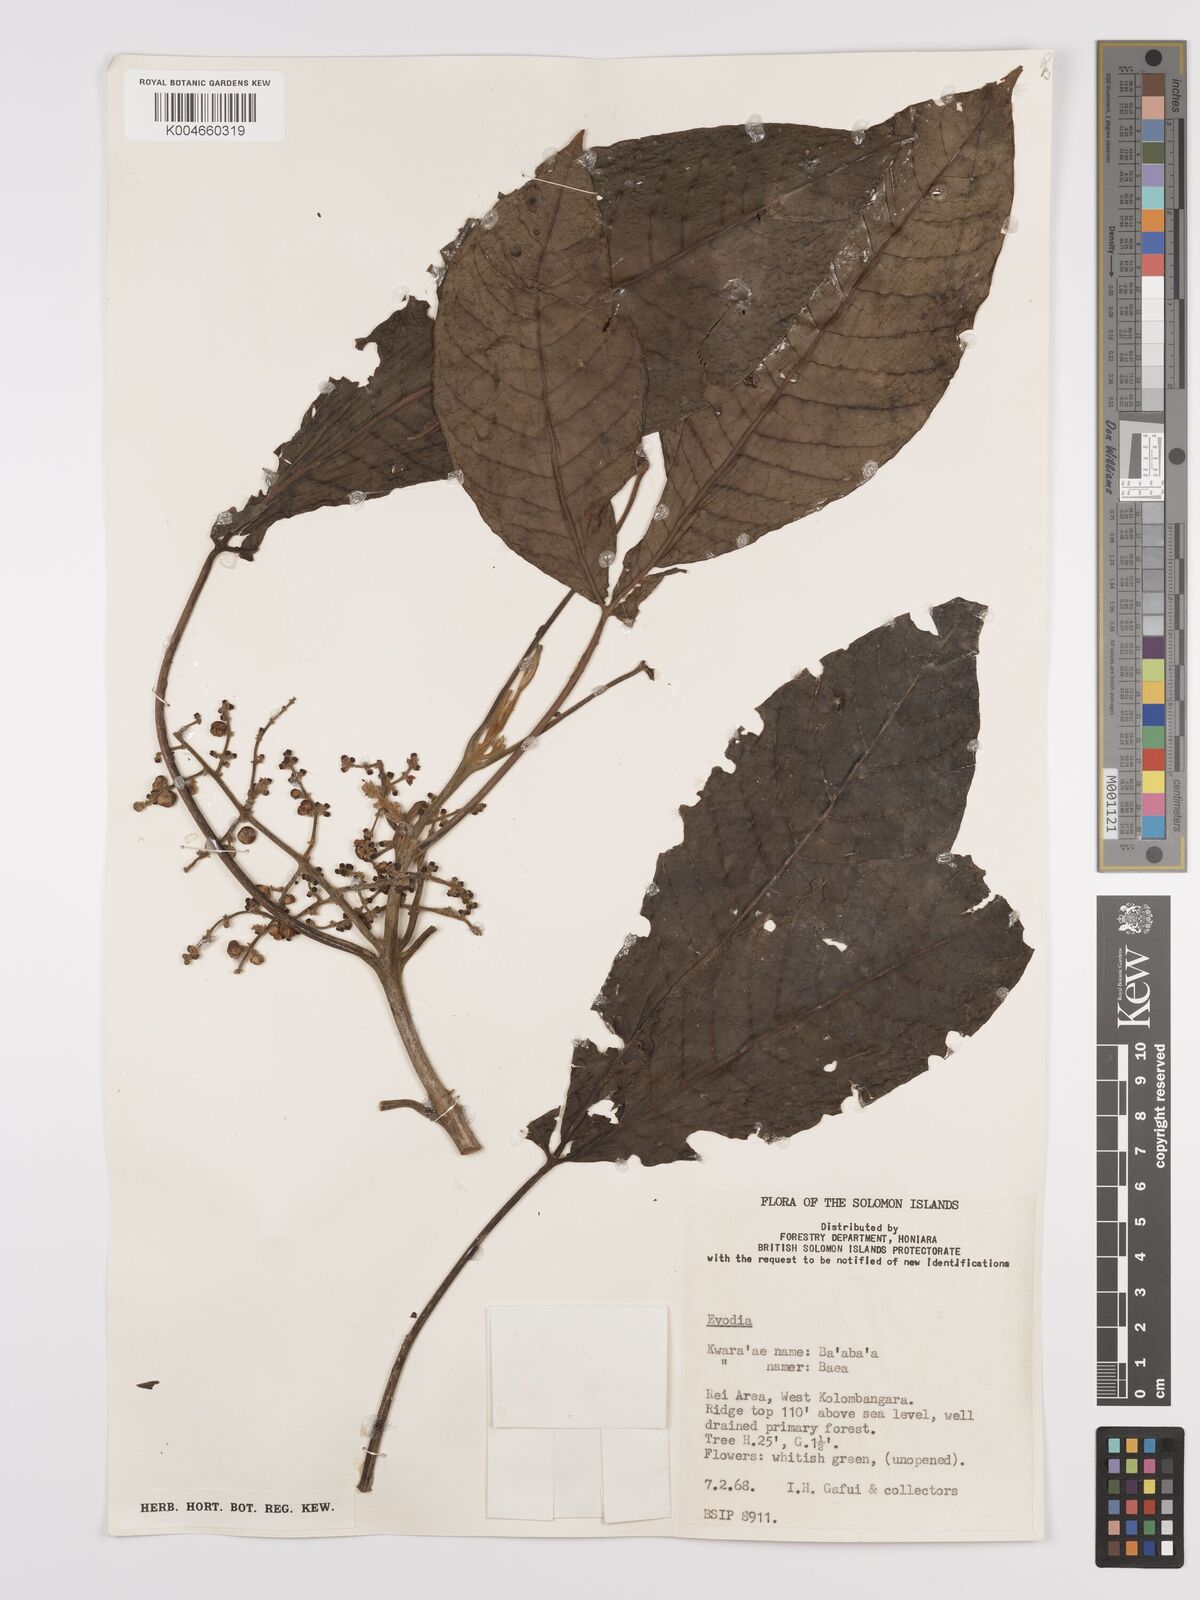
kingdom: Plantae
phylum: Tracheophyta
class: Magnoliopsida
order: Sapindales
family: Rutaceae
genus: Euodia
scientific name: Euodia
